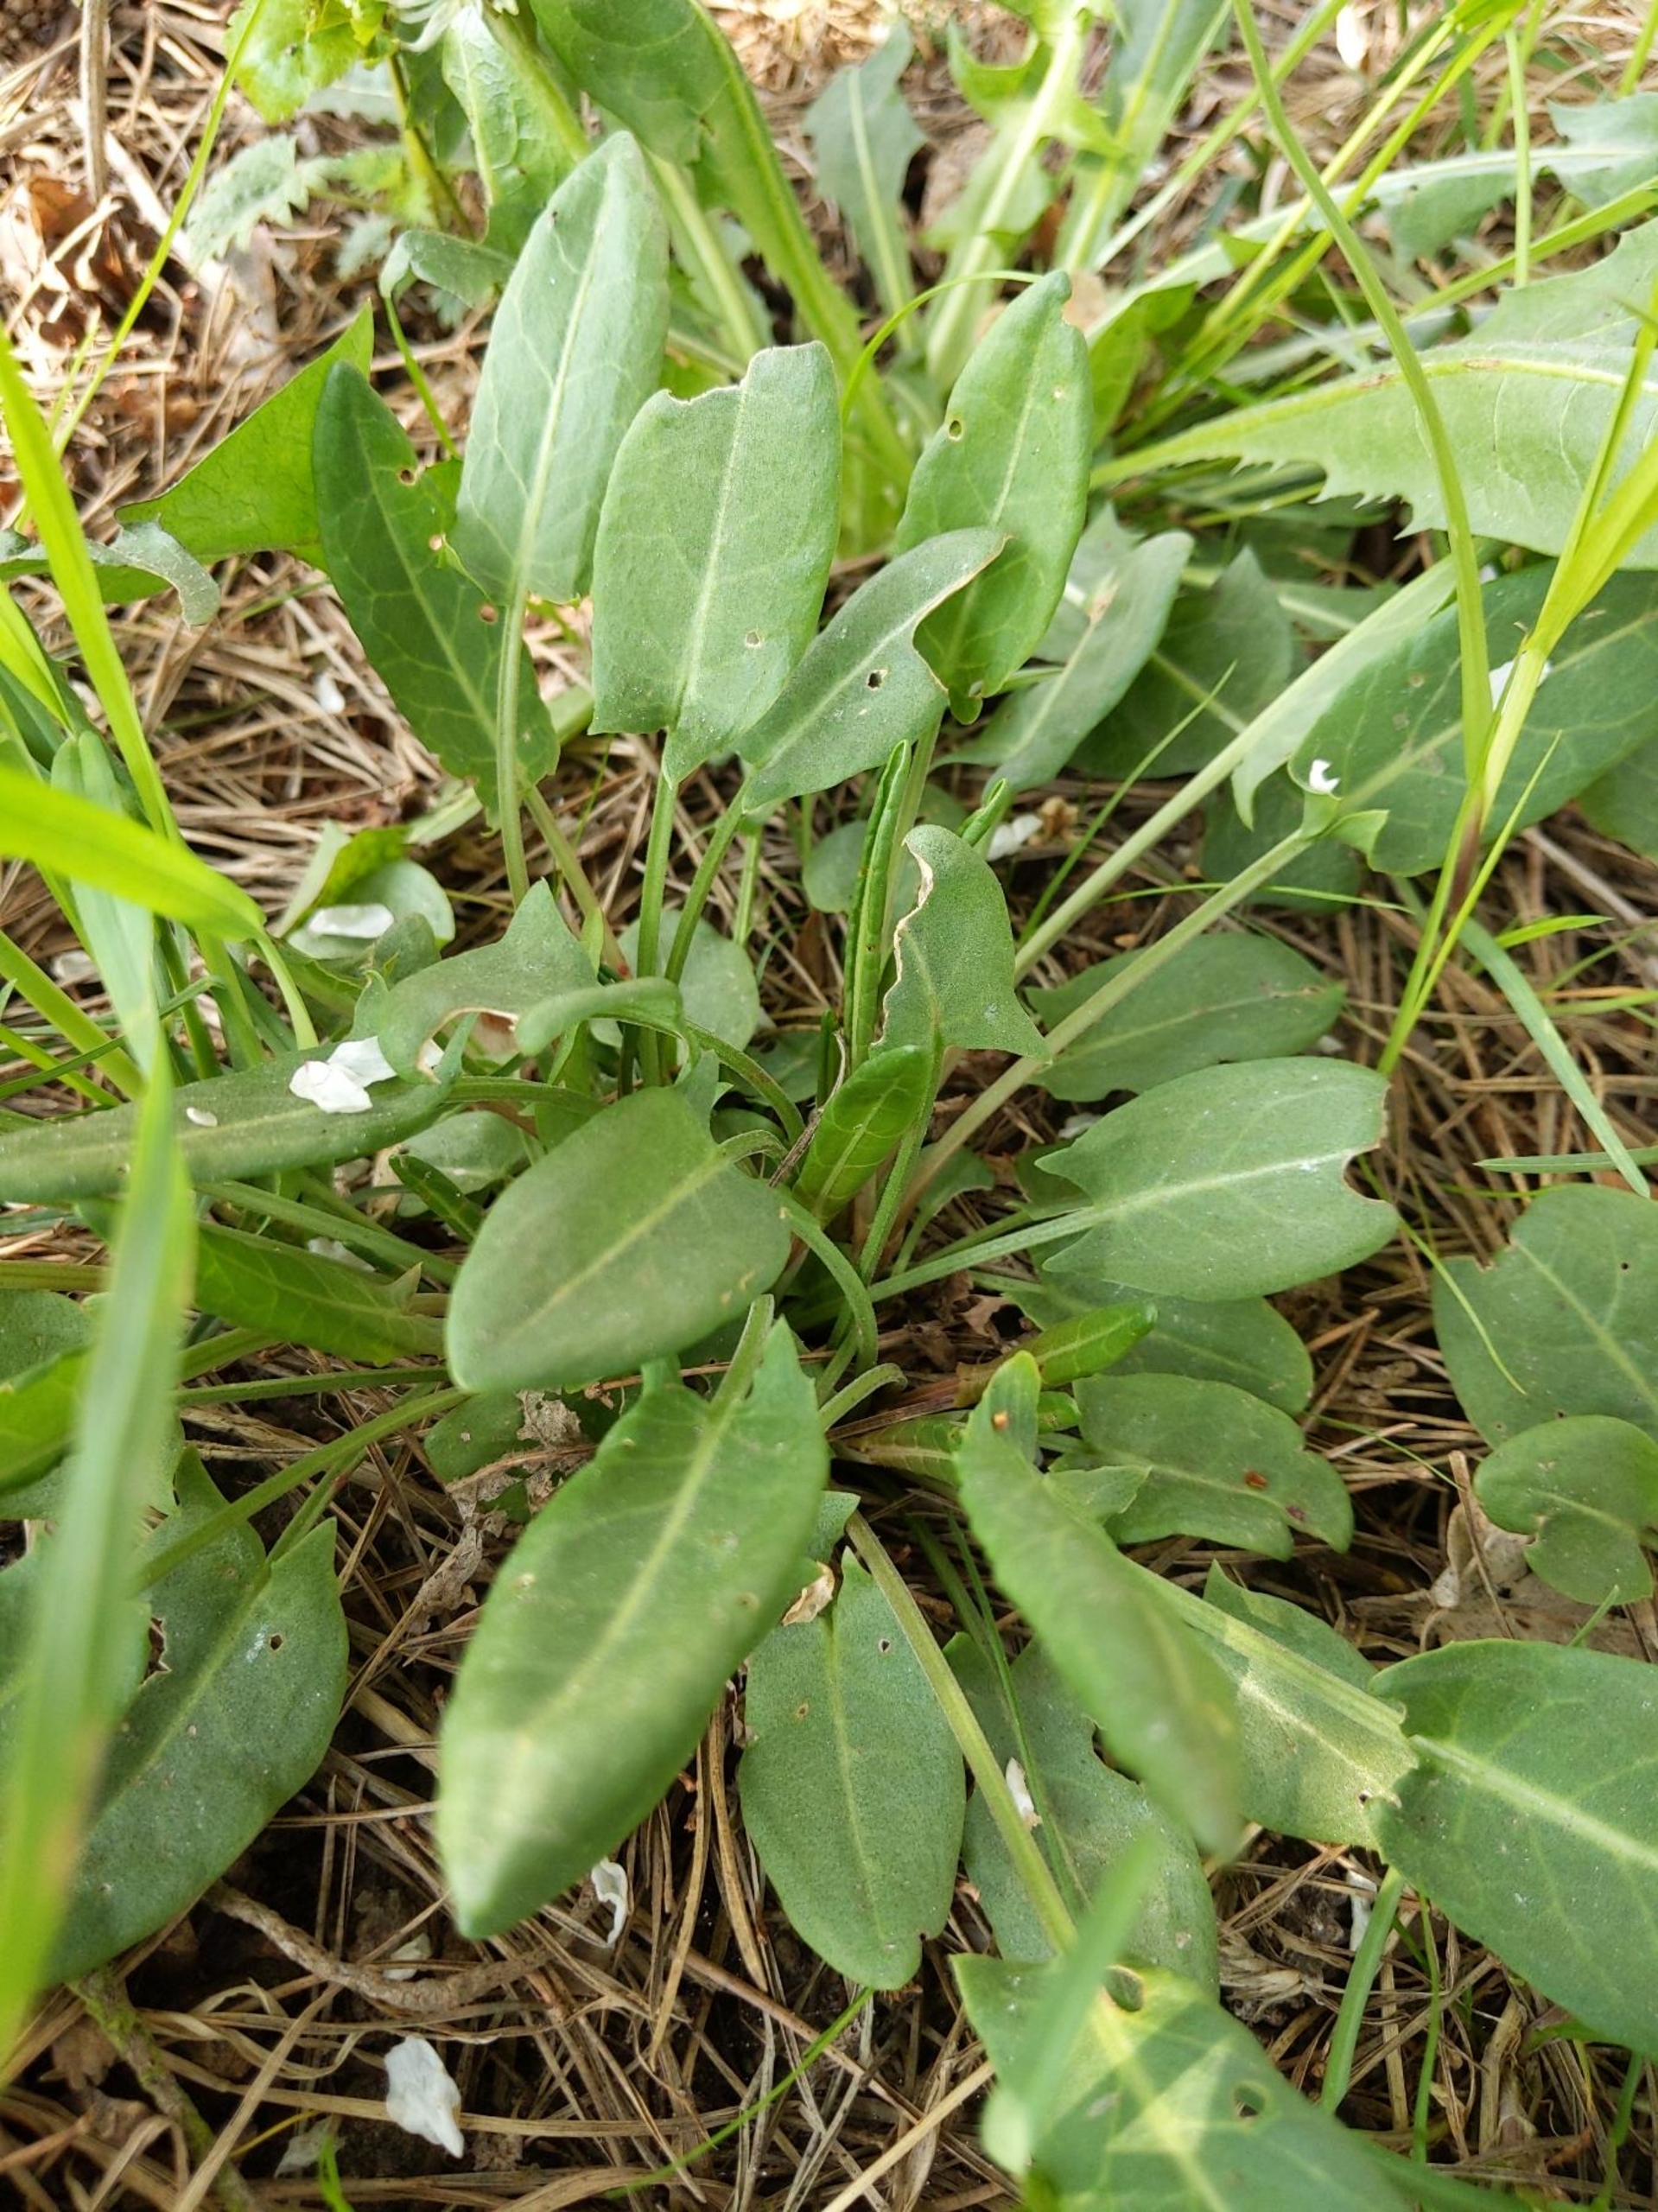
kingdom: Plantae
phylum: Tracheophyta
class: Magnoliopsida
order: Caryophyllales
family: Polygonaceae
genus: Rumex
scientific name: Rumex acetosa
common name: Almindelig syre
